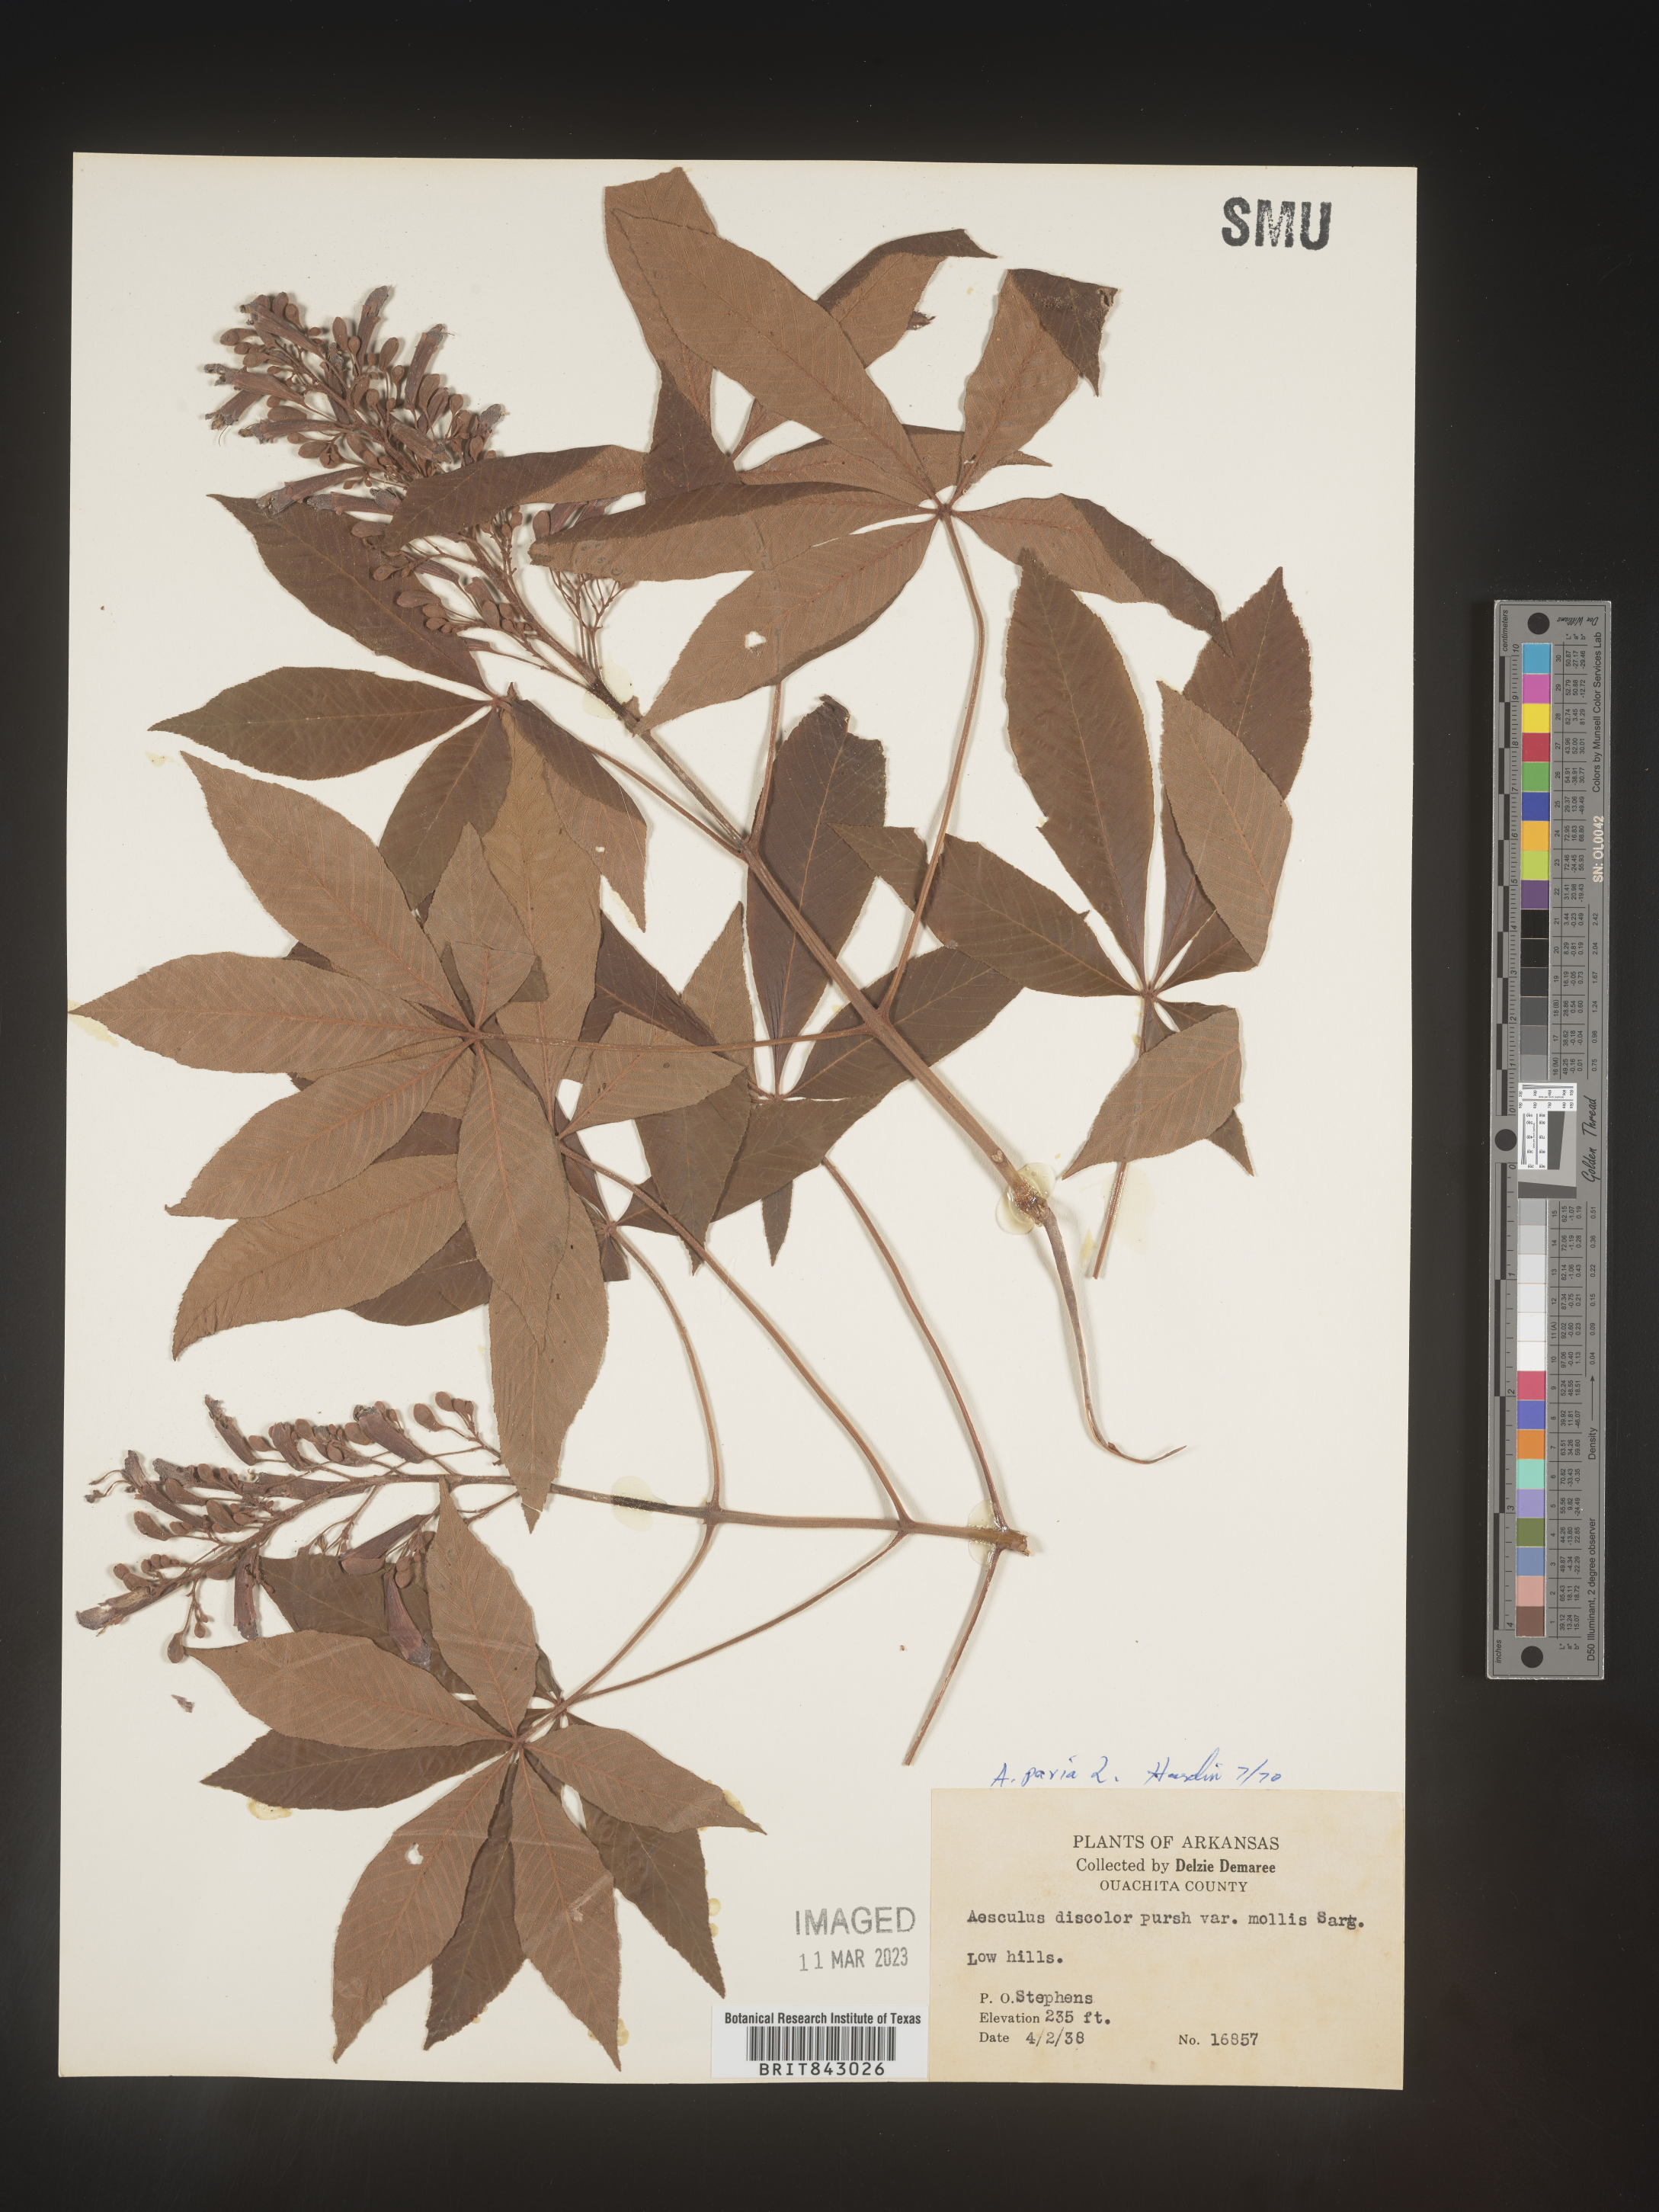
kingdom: Plantae
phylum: Tracheophyta
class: Magnoliopsida
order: Sapindales
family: Sapindaceae
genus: Aesculus
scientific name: Aesculus pavia
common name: Red buckeye
